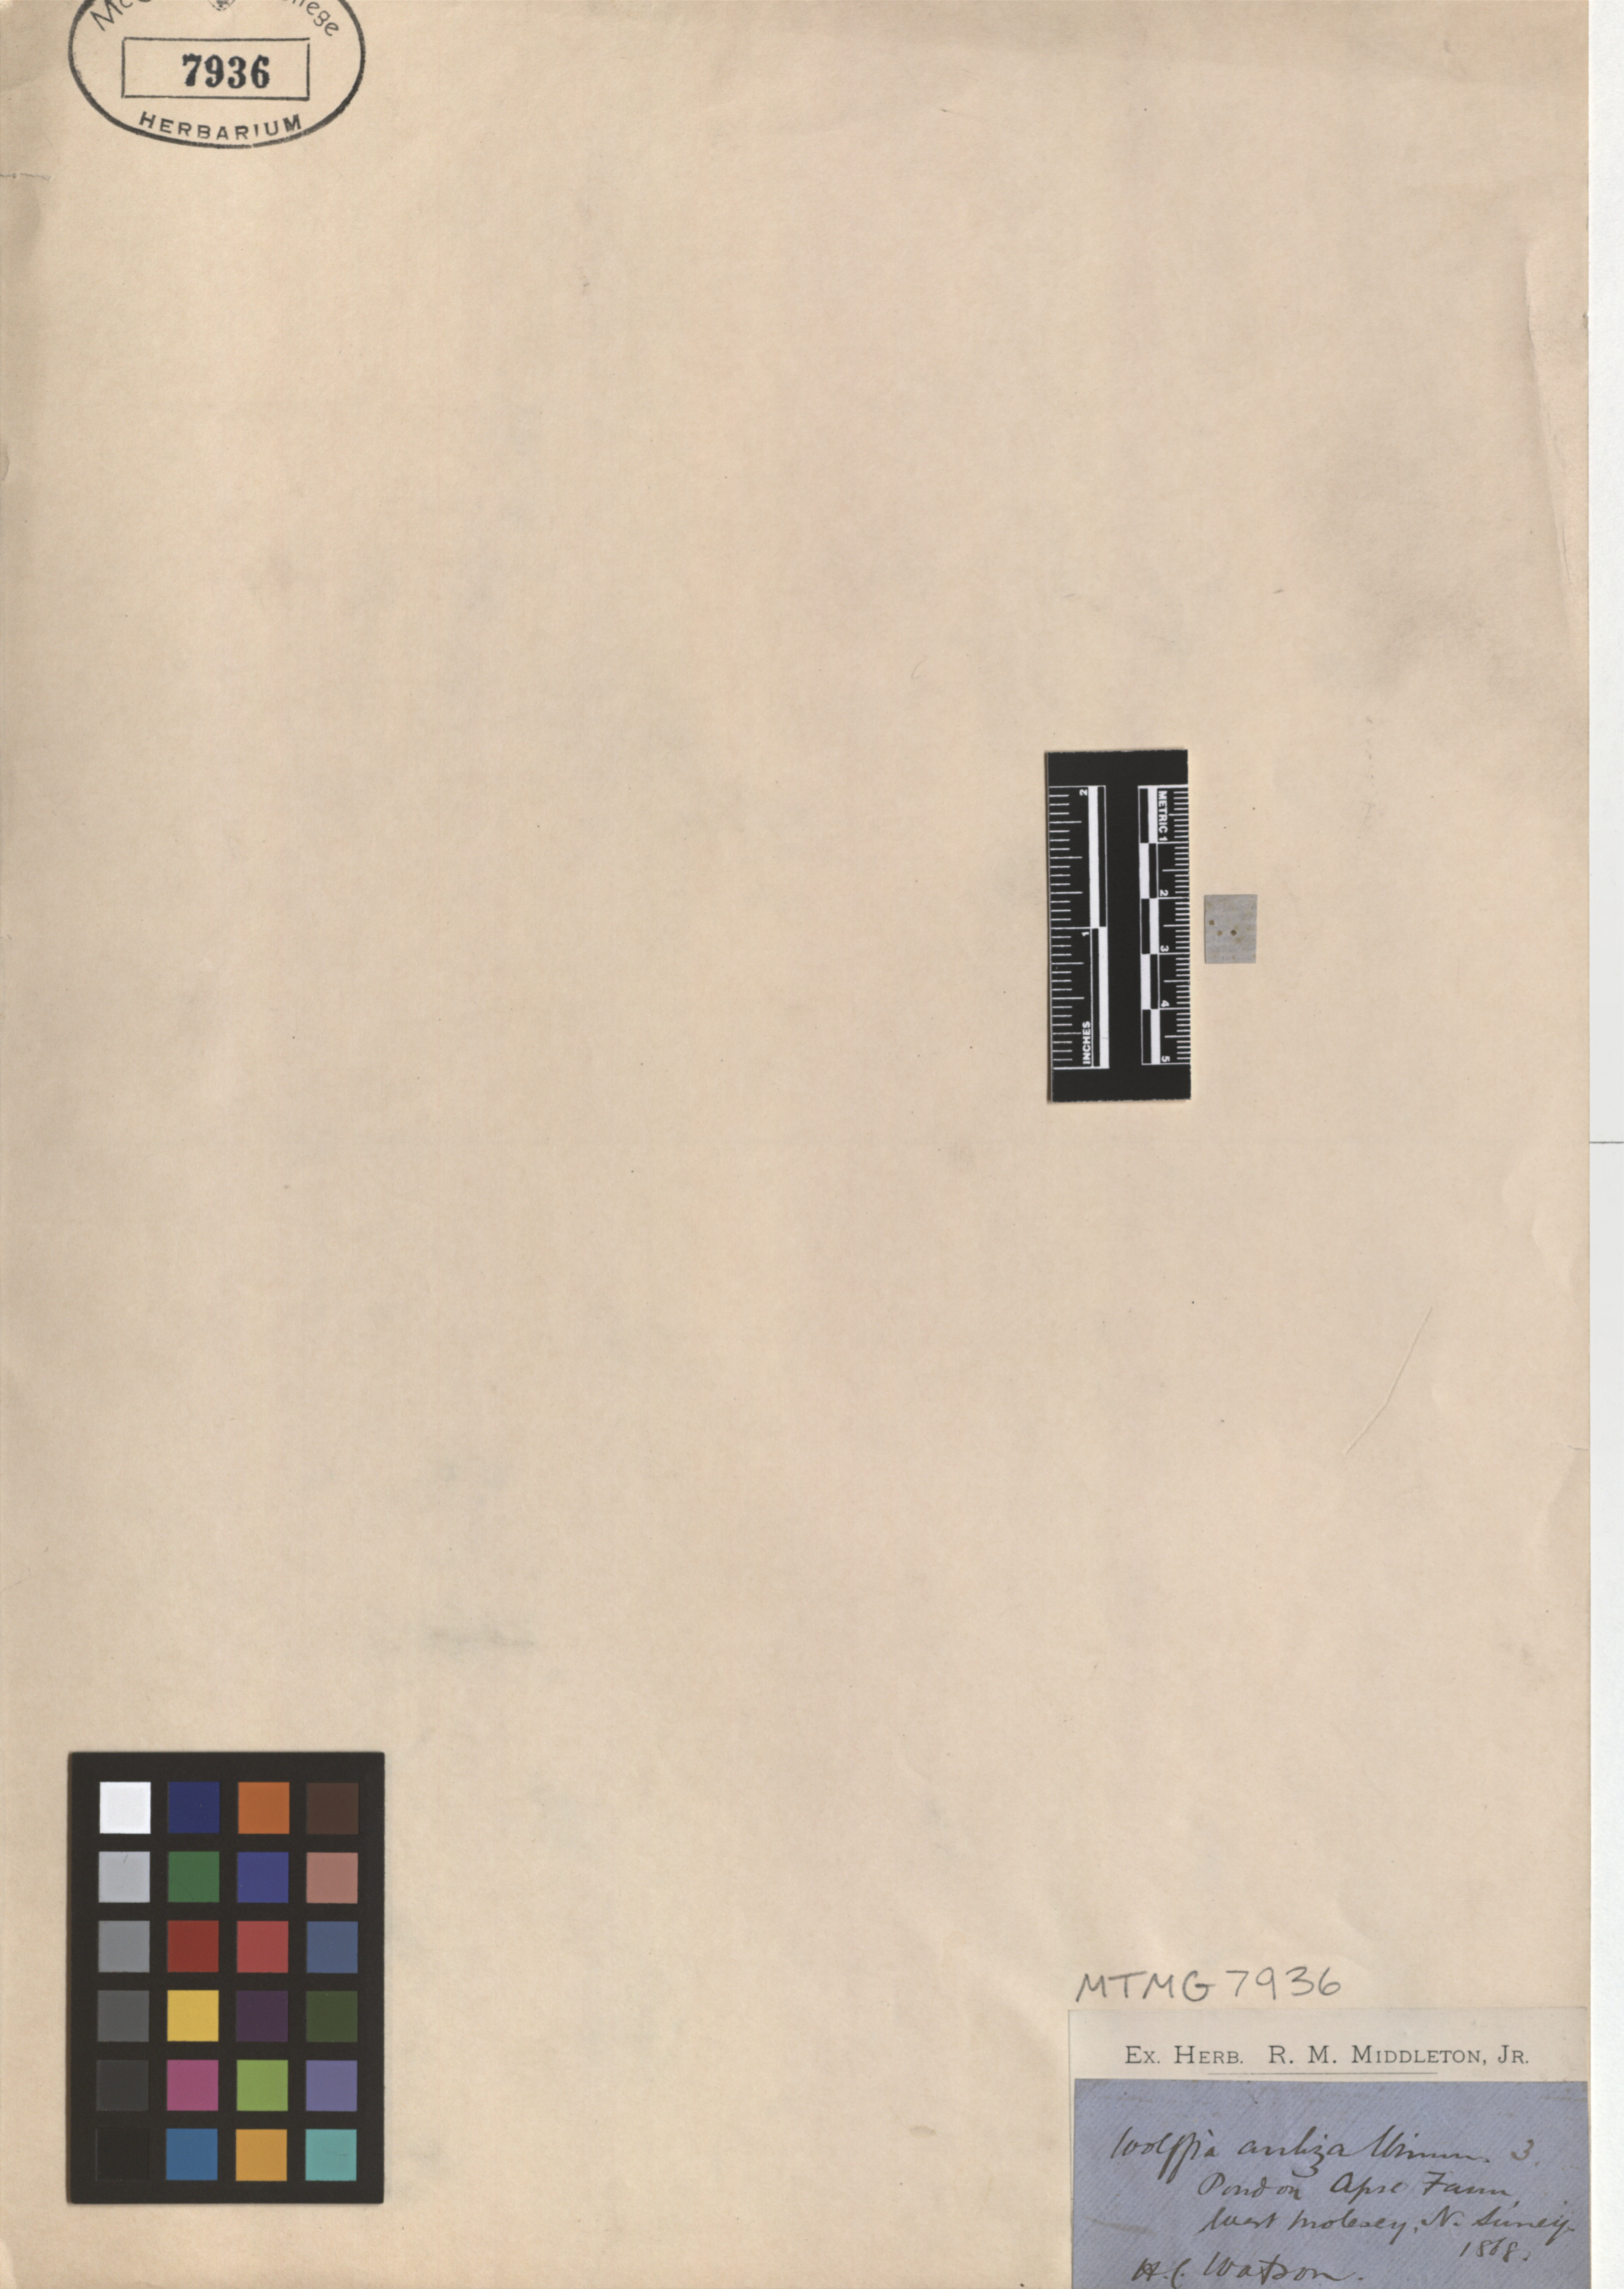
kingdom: Plantae
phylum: Tracheophyta
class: Liliopsida
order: Alismatales
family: Araceae
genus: Wolffia
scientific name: Wolffia arrhiza
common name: Rootless duckweed
